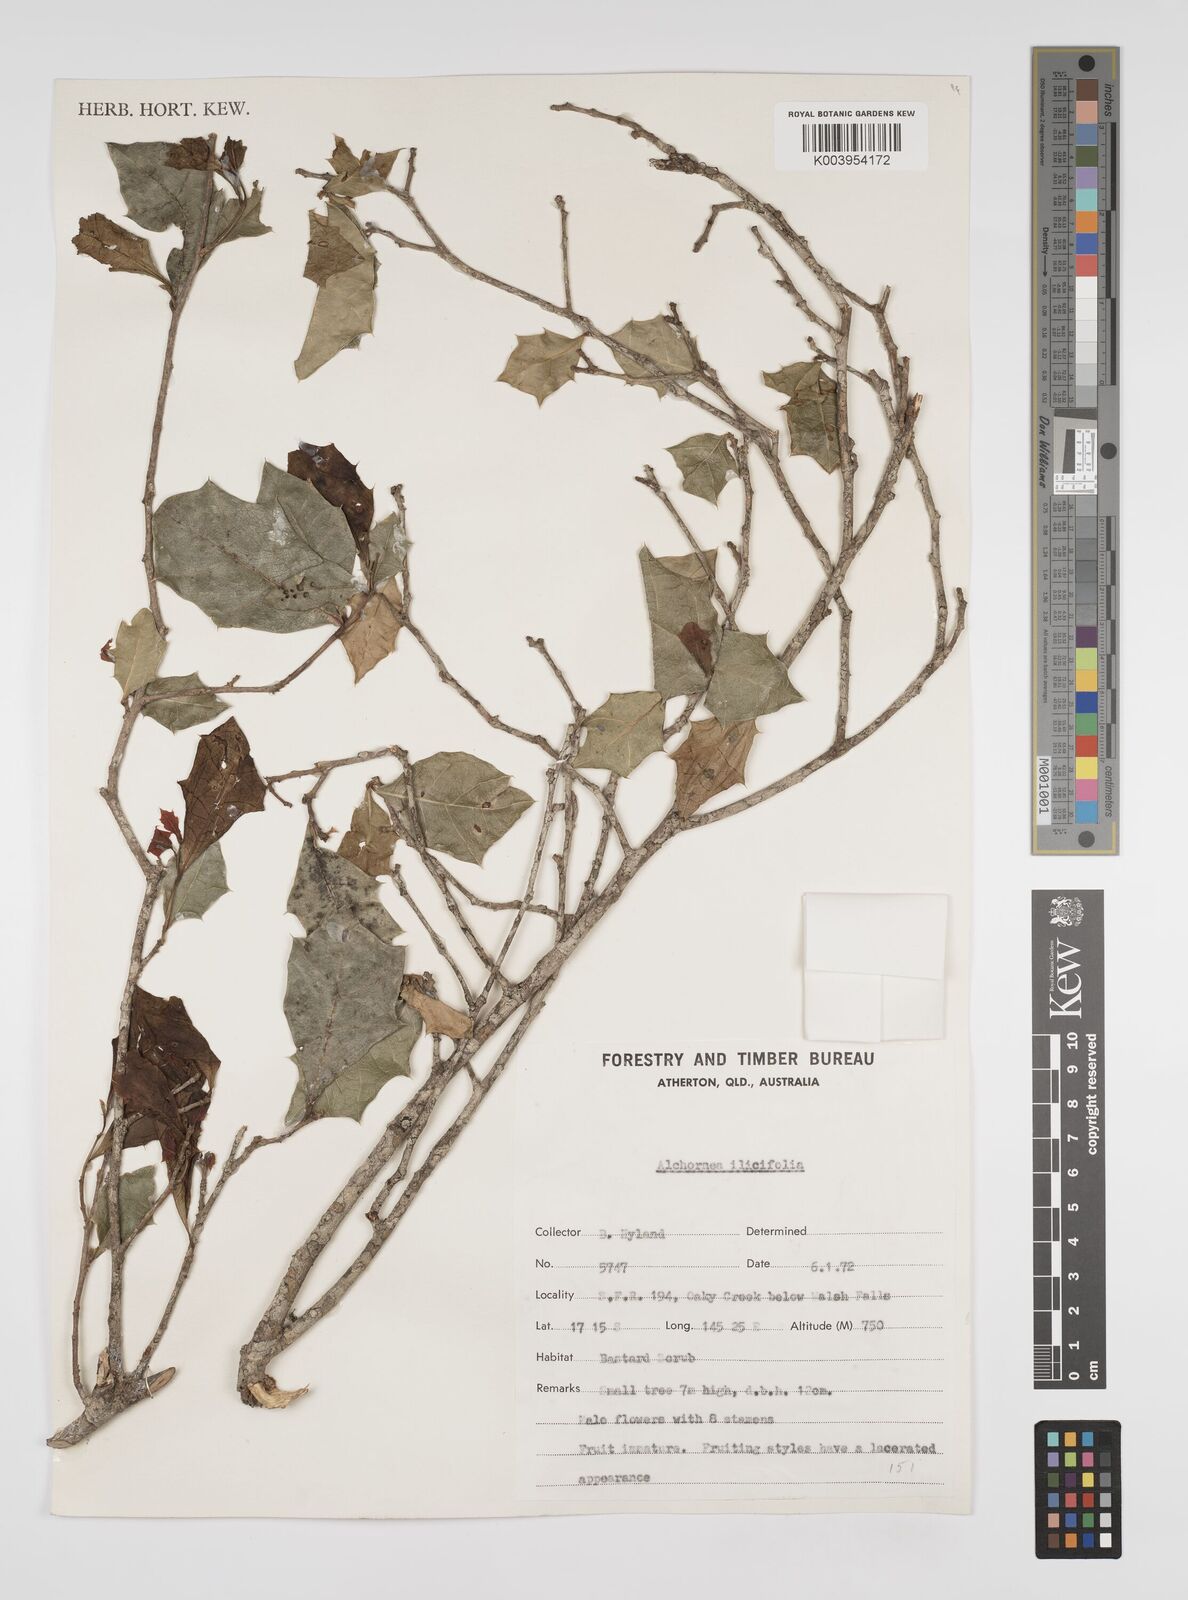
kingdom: Plantae
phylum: Tracheophyta
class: Magnoliopsida
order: Malpighiales
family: Euphorbiaceae
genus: Alchornea
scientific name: Alchornea ilicifolia
